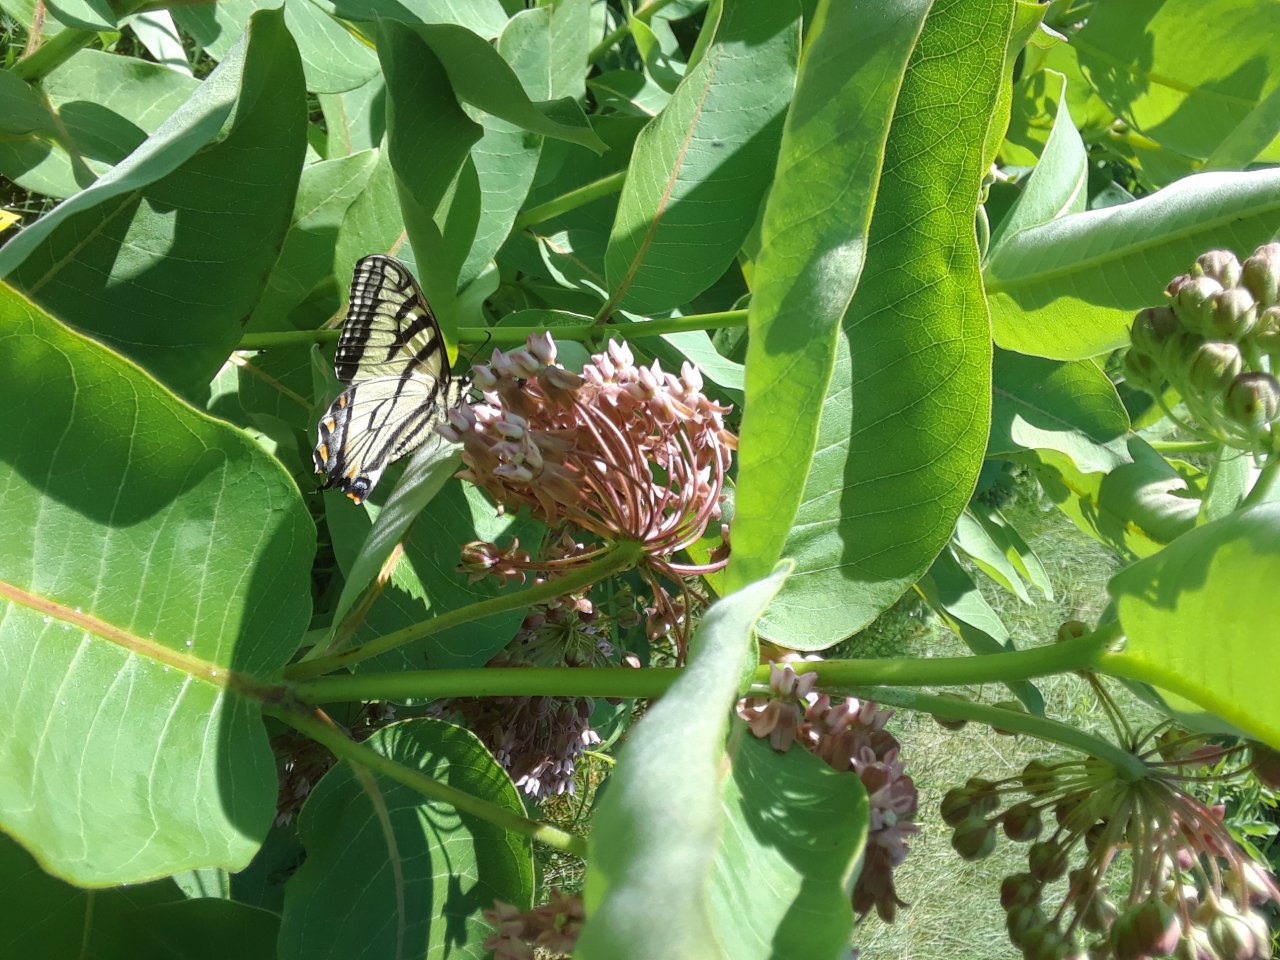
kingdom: Animalia
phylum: Arthropoda
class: Insecta
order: Lepidoptera
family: Papilionidae
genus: Pterourus
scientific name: Pterourus glaucus
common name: Eastern Tiger Swallowtail
